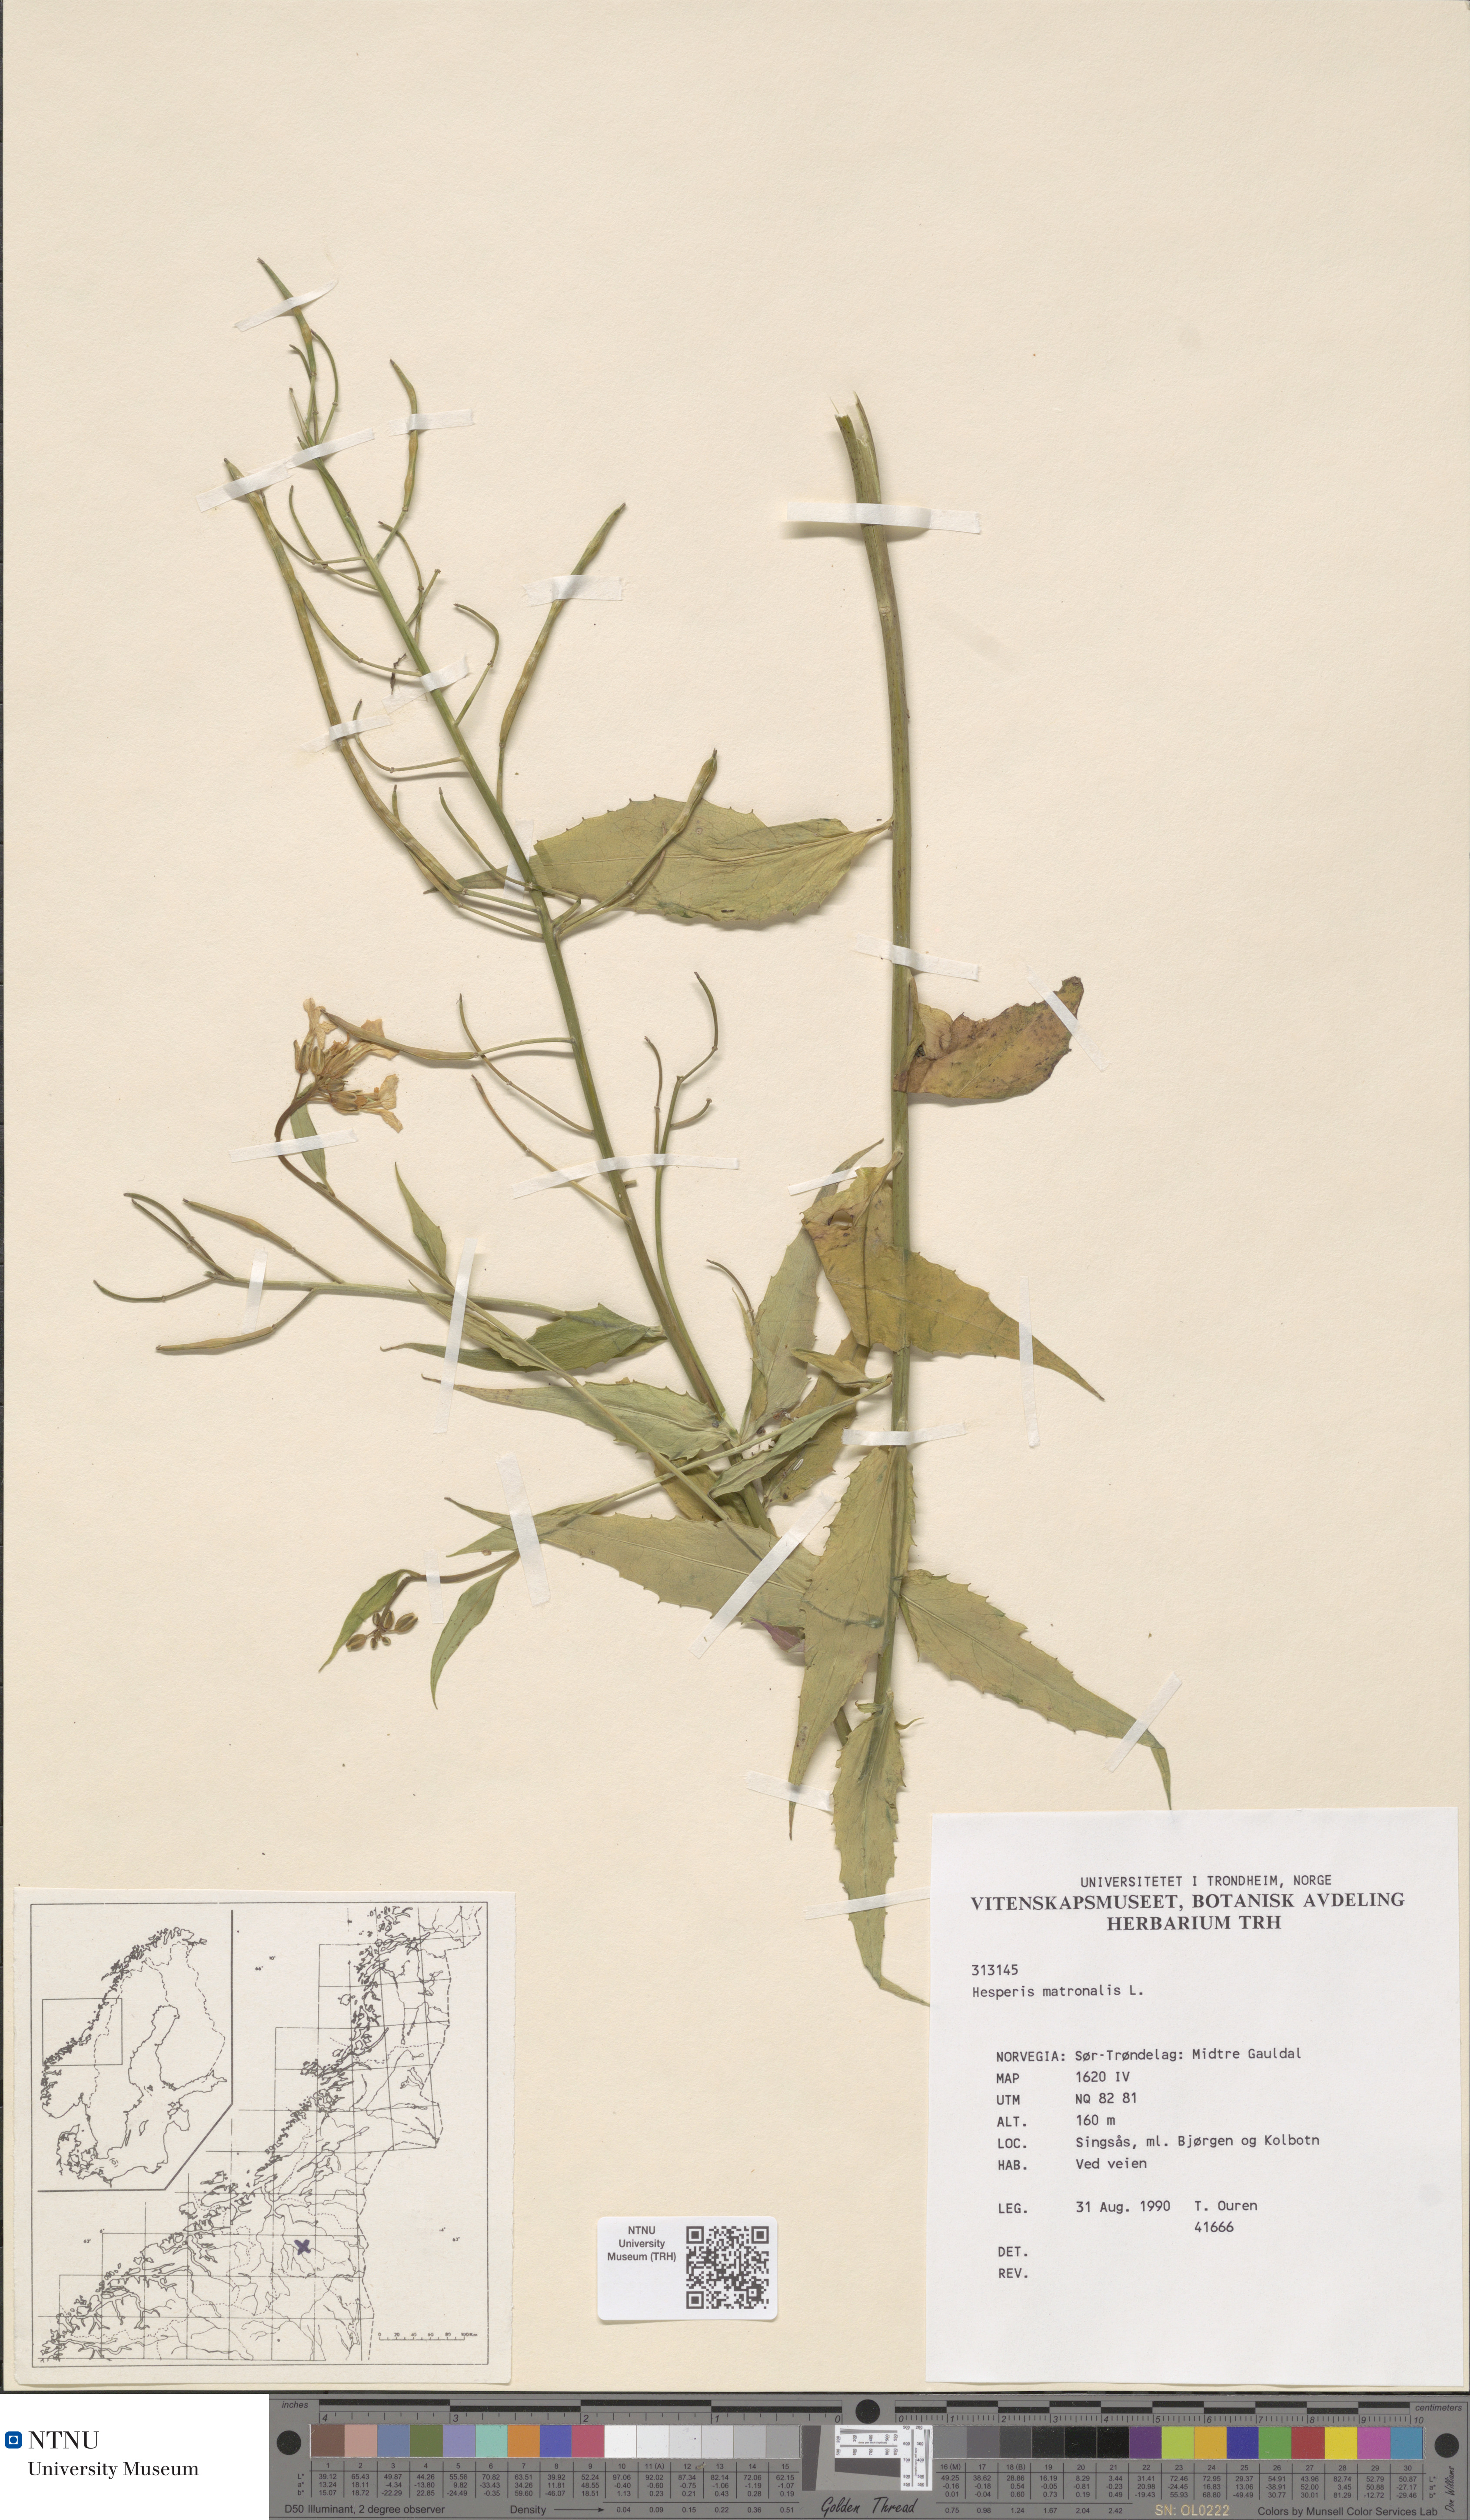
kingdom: Plantae
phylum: Tracheophyta
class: Magnoliopsida
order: Brassicales
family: Brassicaceae
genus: Hesperis
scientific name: Hesperis matronalis
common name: Dame's-violet
